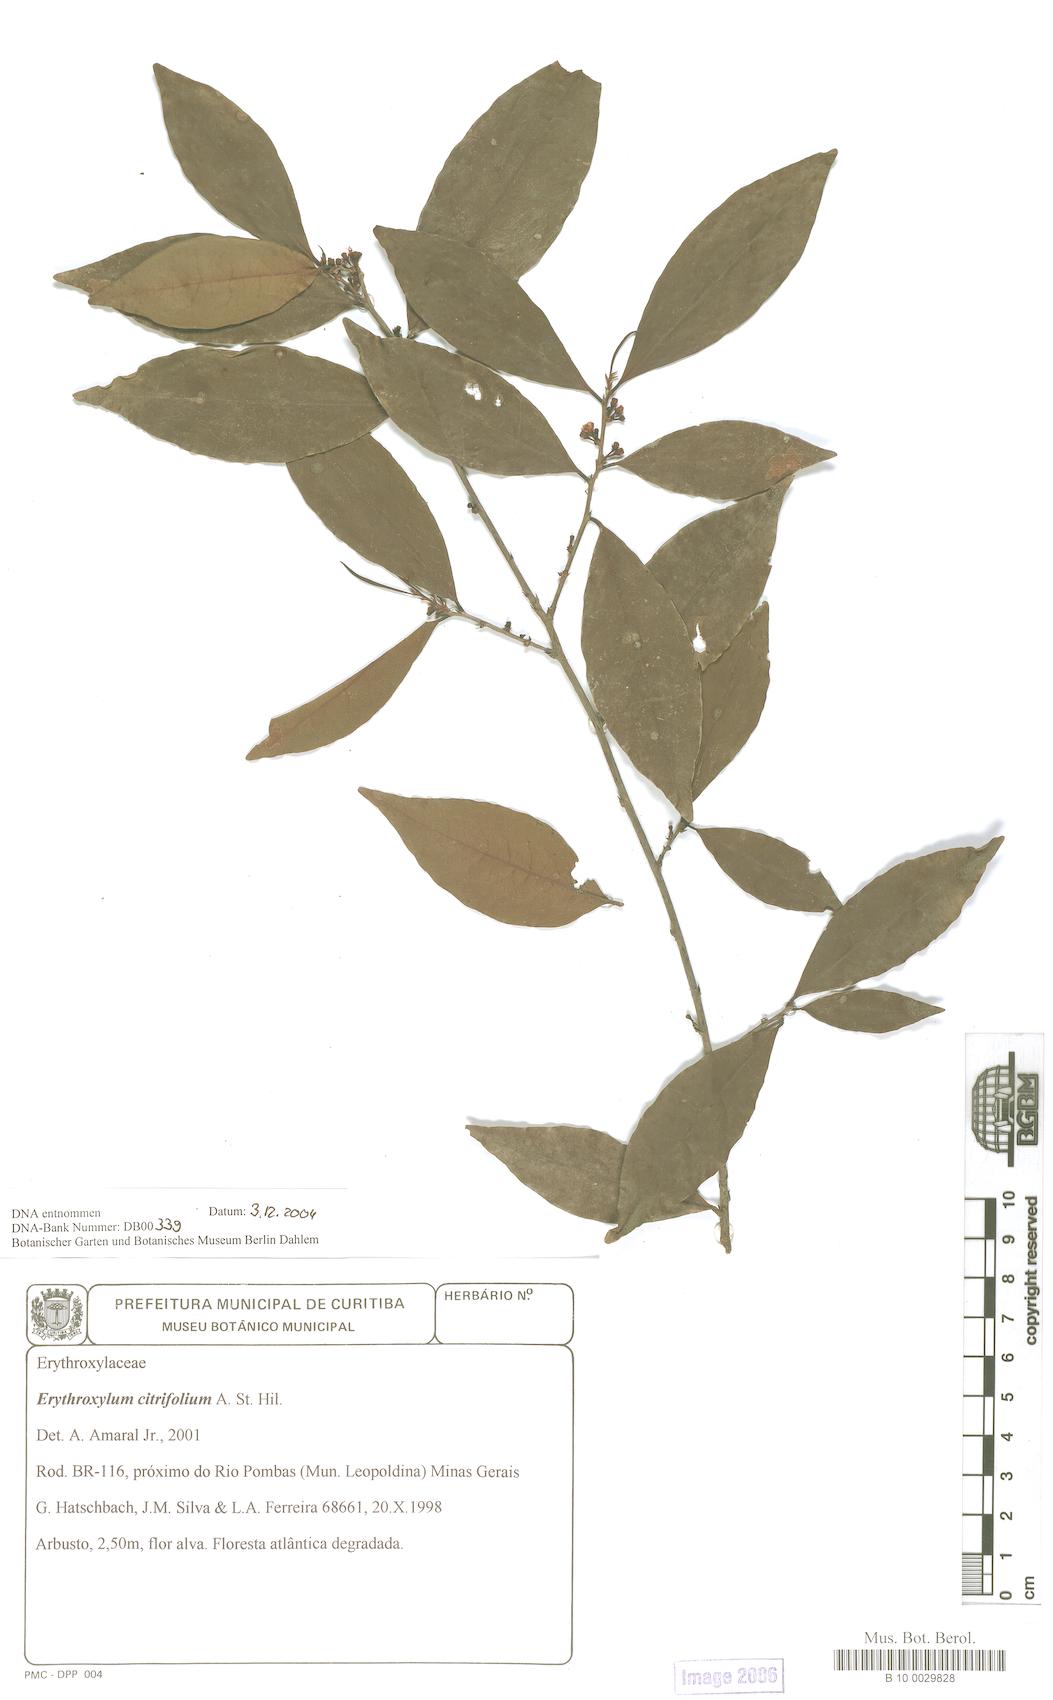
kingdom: Plantae
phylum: Tracheophyta
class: Magnoliopsida
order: Malpighiales
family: Erythroxylaceae
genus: Erythroxylum
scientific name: Erythroxylum citrifolium
